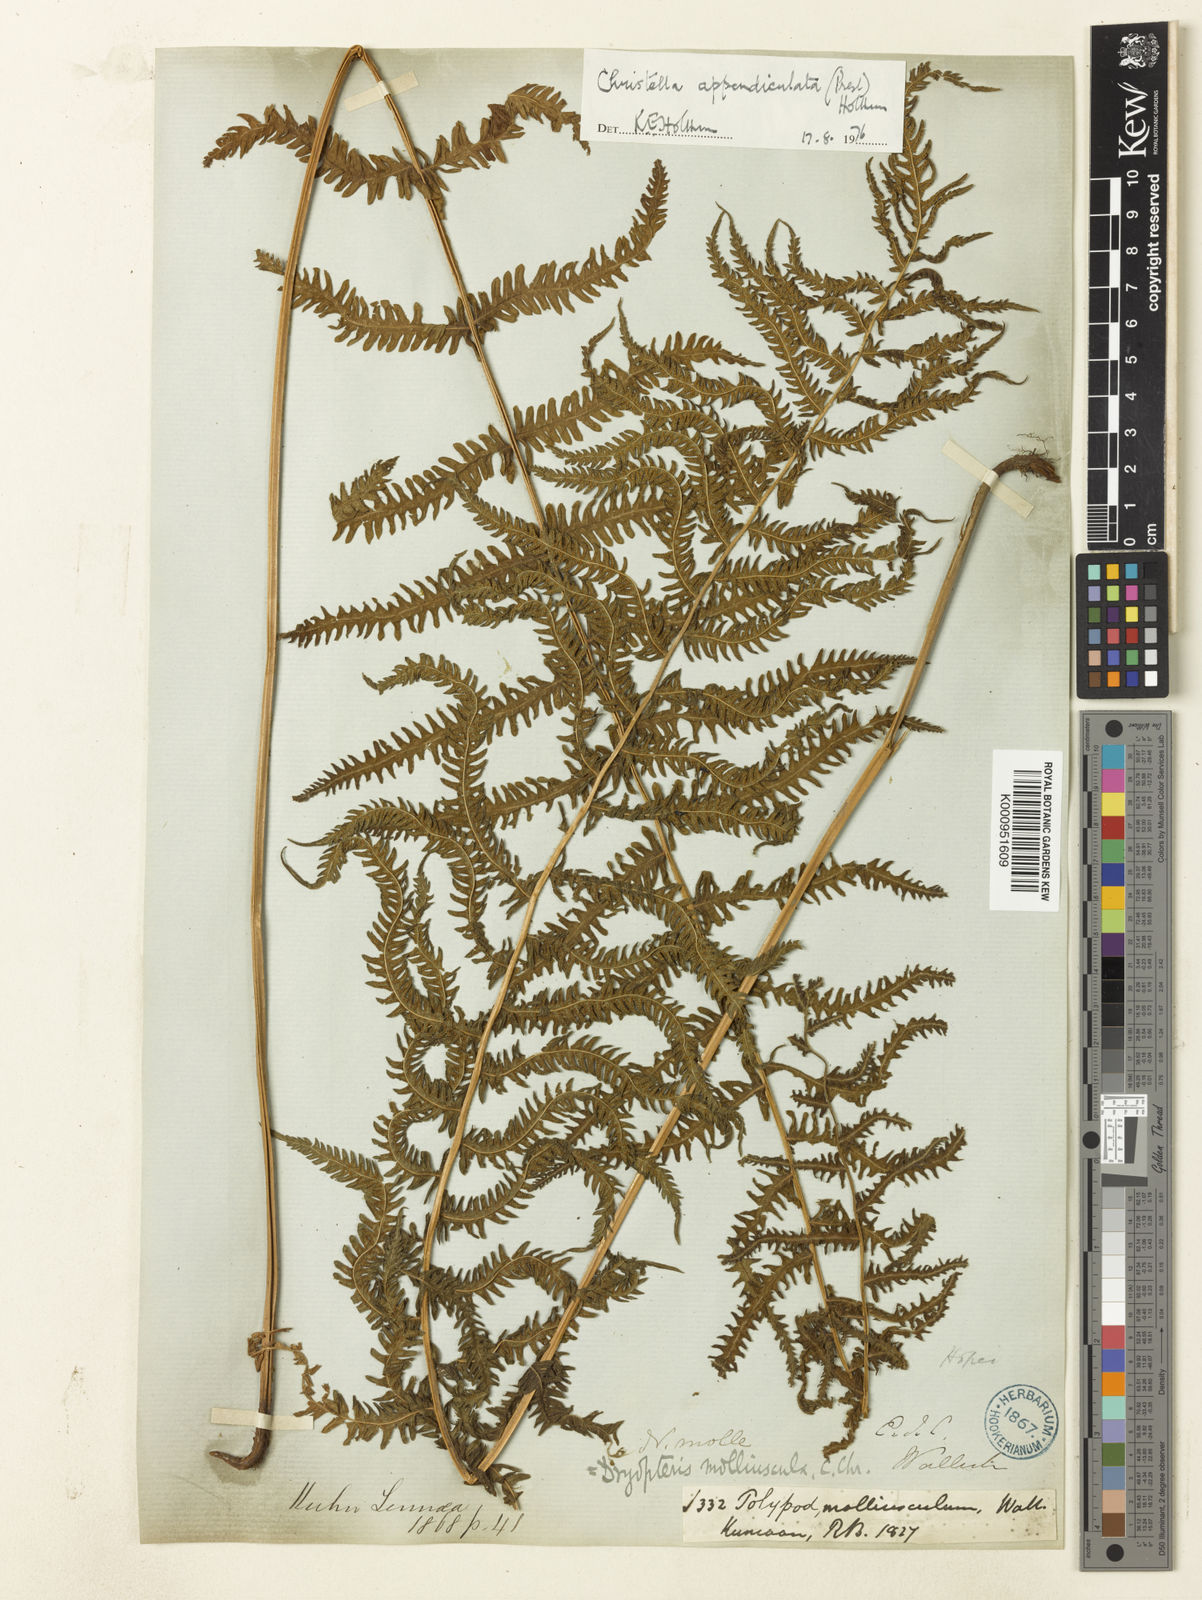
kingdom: Plantae
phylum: Tracheophyta
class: Polypodiopsida
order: Polypodiales
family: Thelypteridaceae
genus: Christella
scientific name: Christella procera
